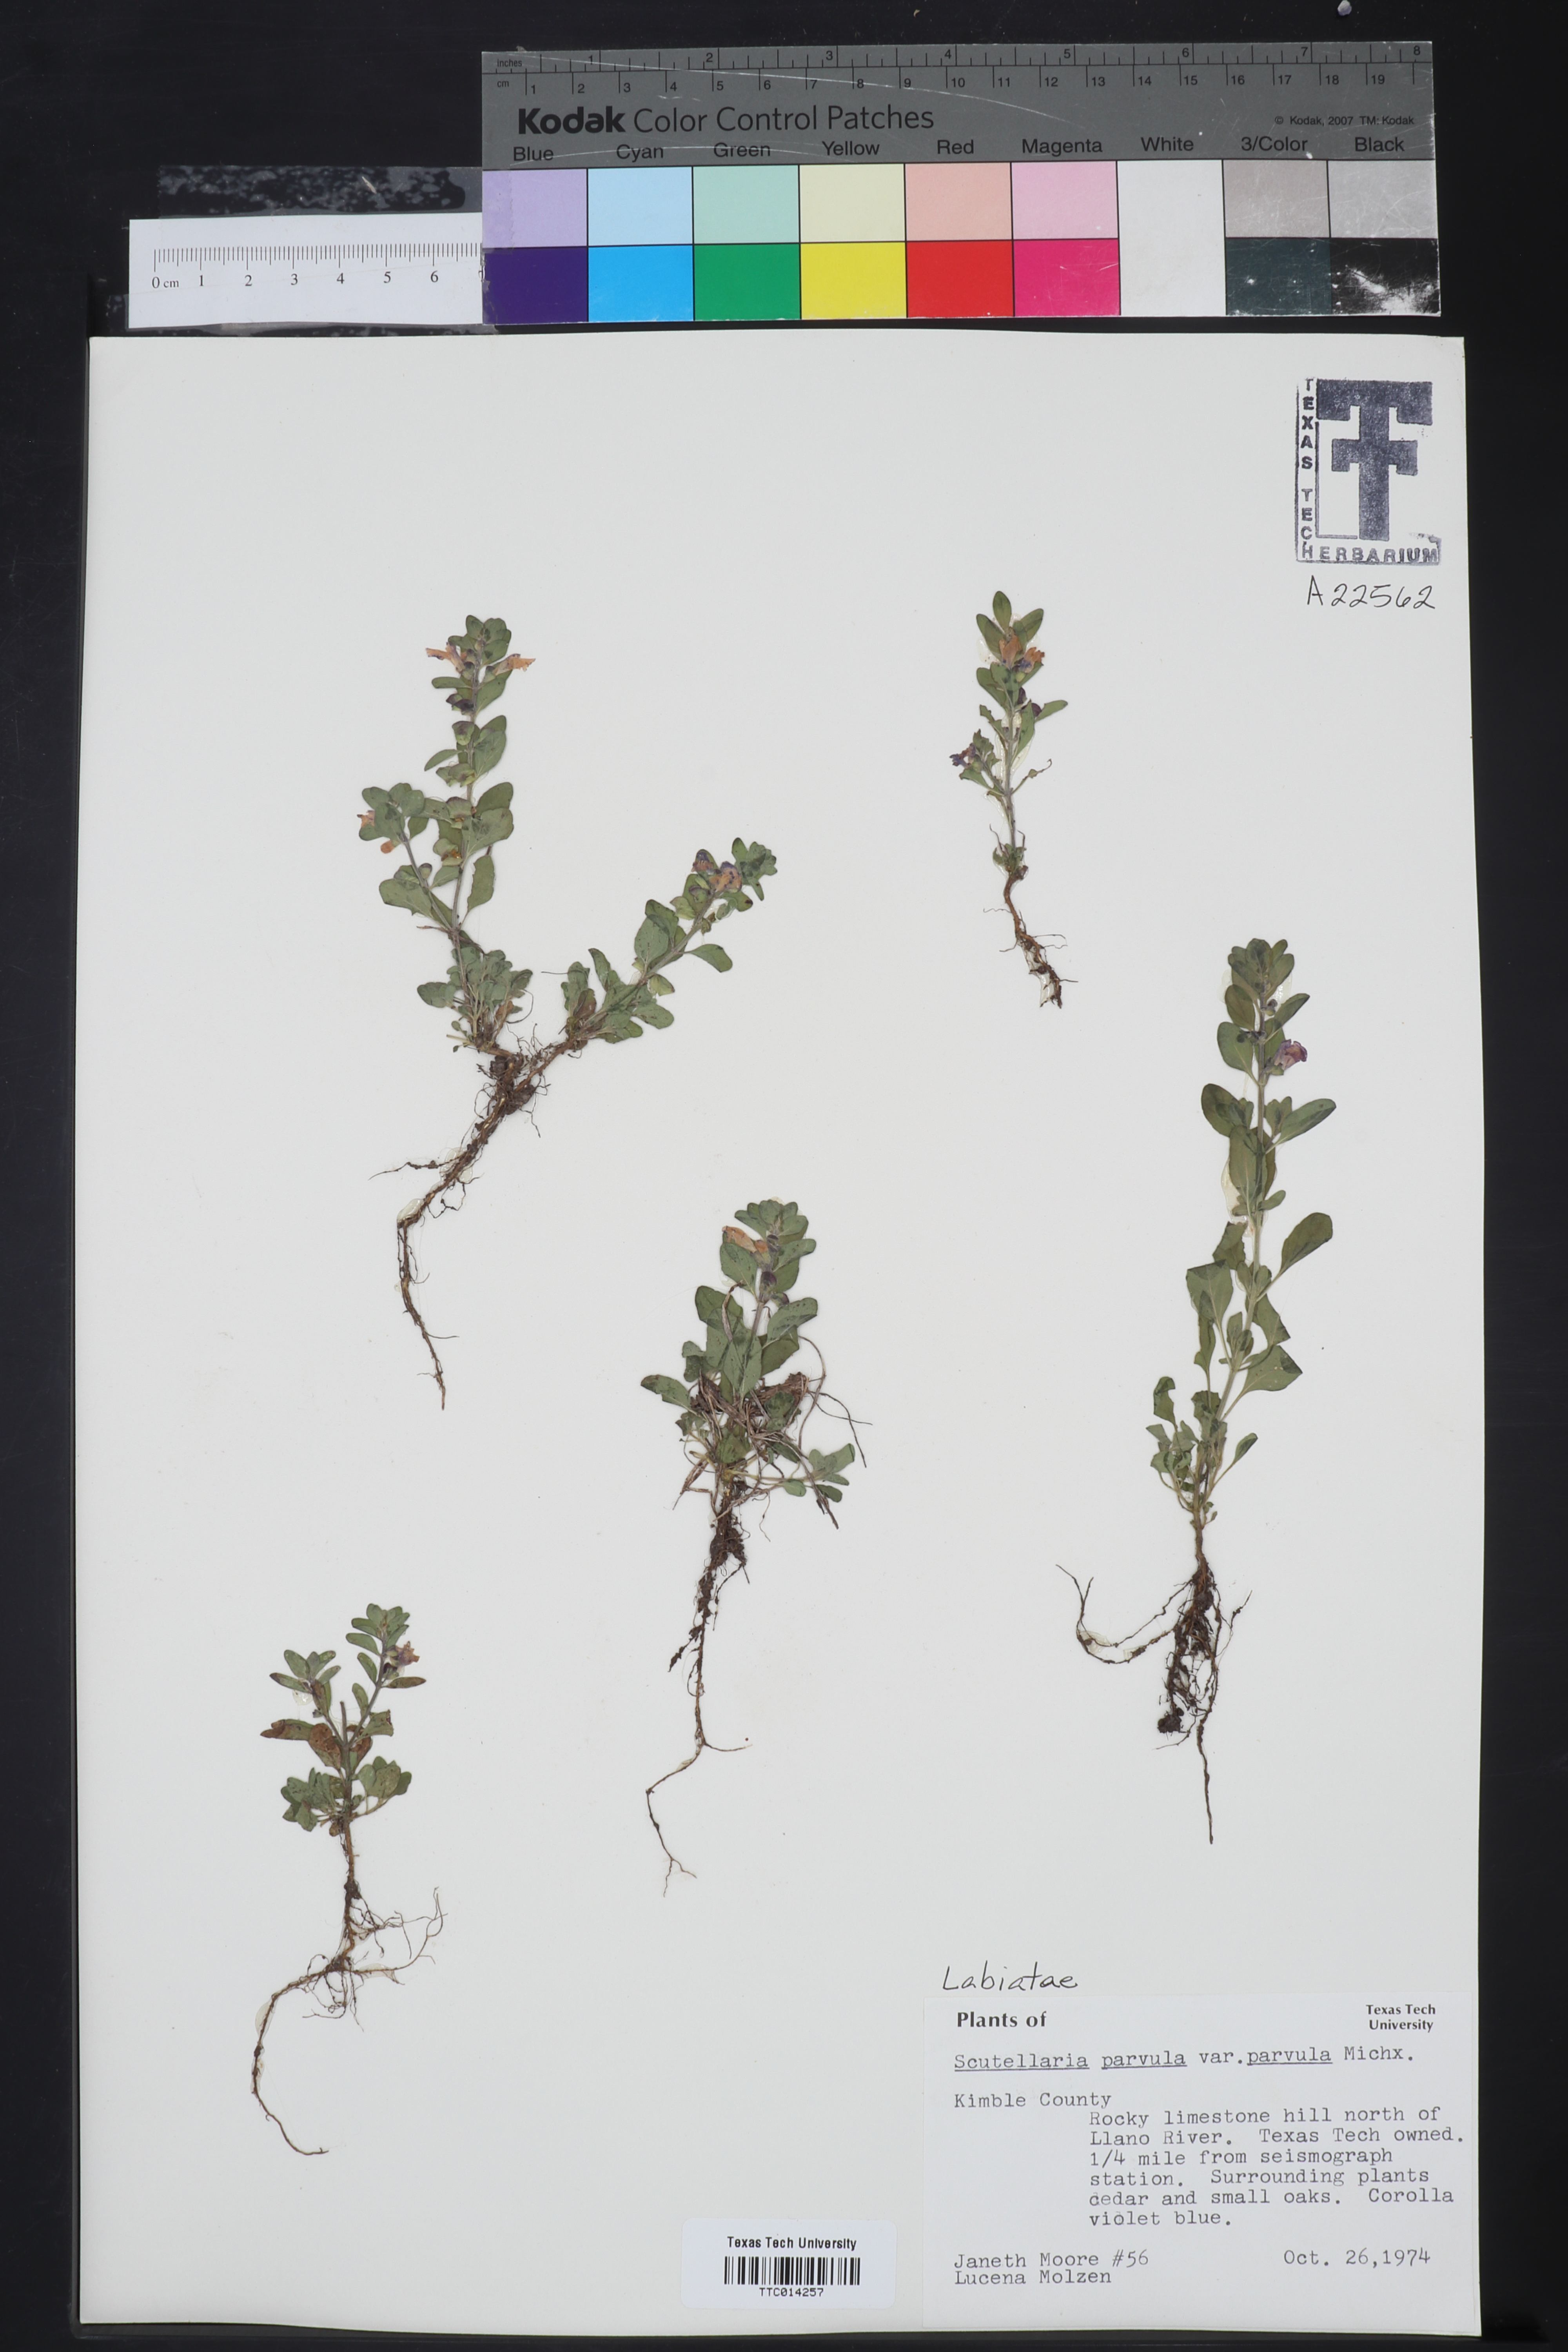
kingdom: Plantae
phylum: Tracheophyta
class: Magnoliopsida
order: Lamiales
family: Lamiaceae
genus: Scutellaria
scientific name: Scutellaria parvula
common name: Little scullcap
